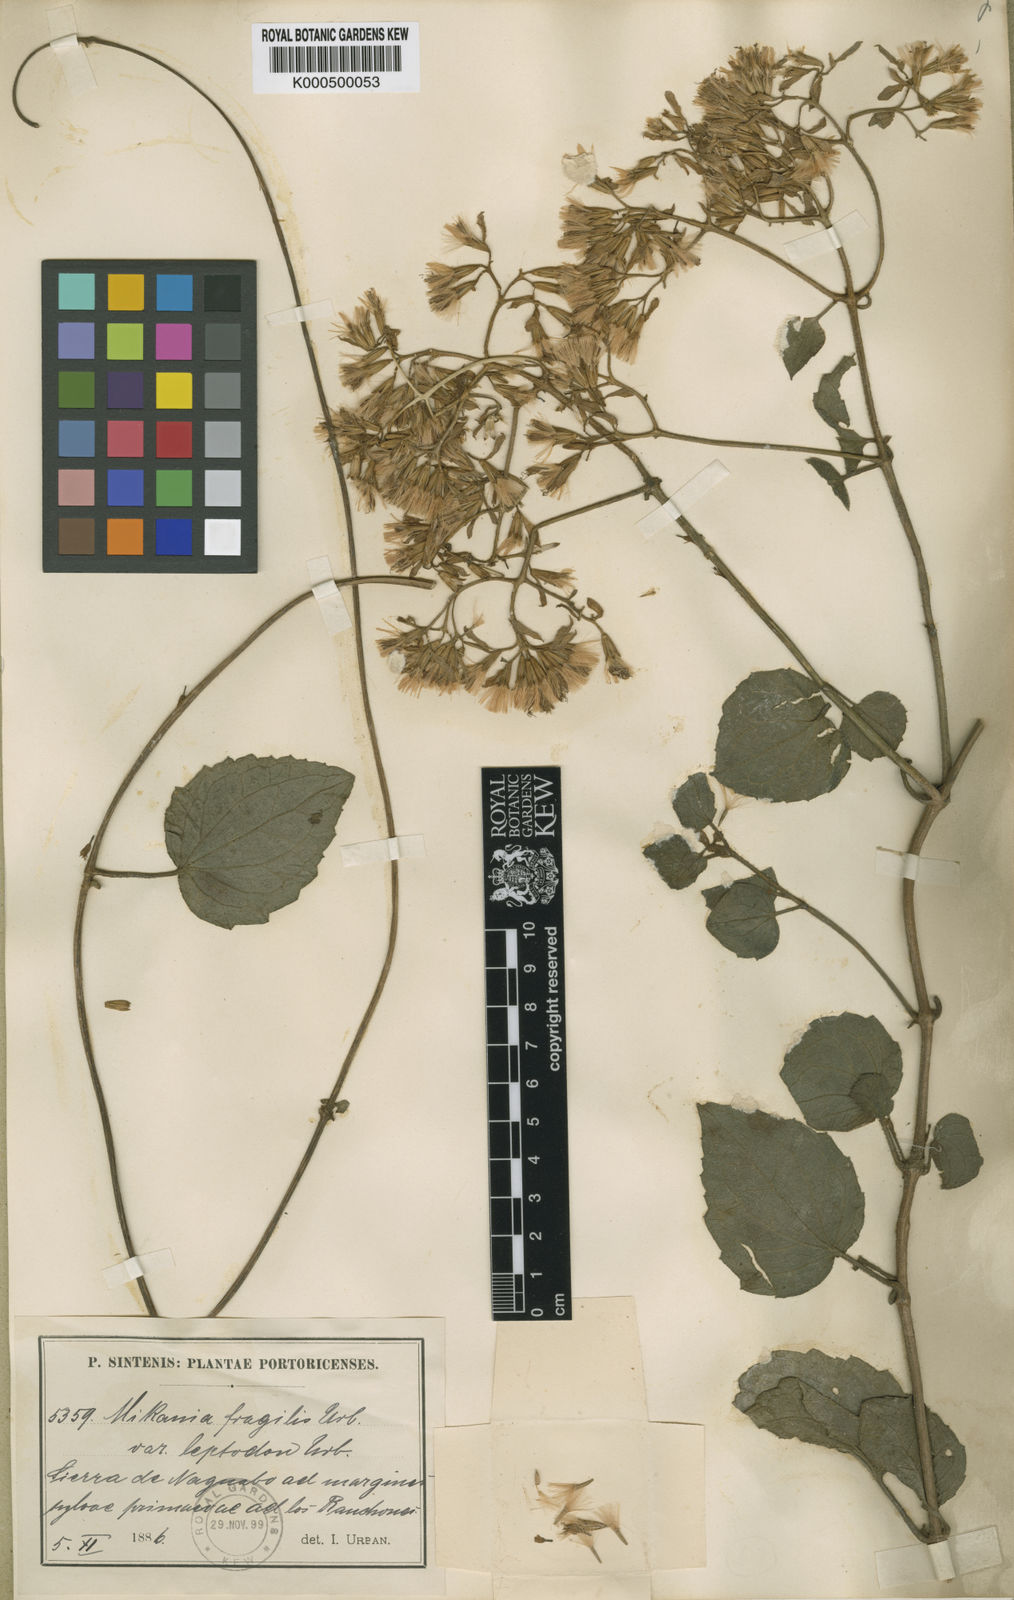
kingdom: Plantae
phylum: Tracheophyta
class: Magnoliopsida
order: Asterales
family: Asteraceae
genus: Mikania
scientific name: Mikania fragilis
